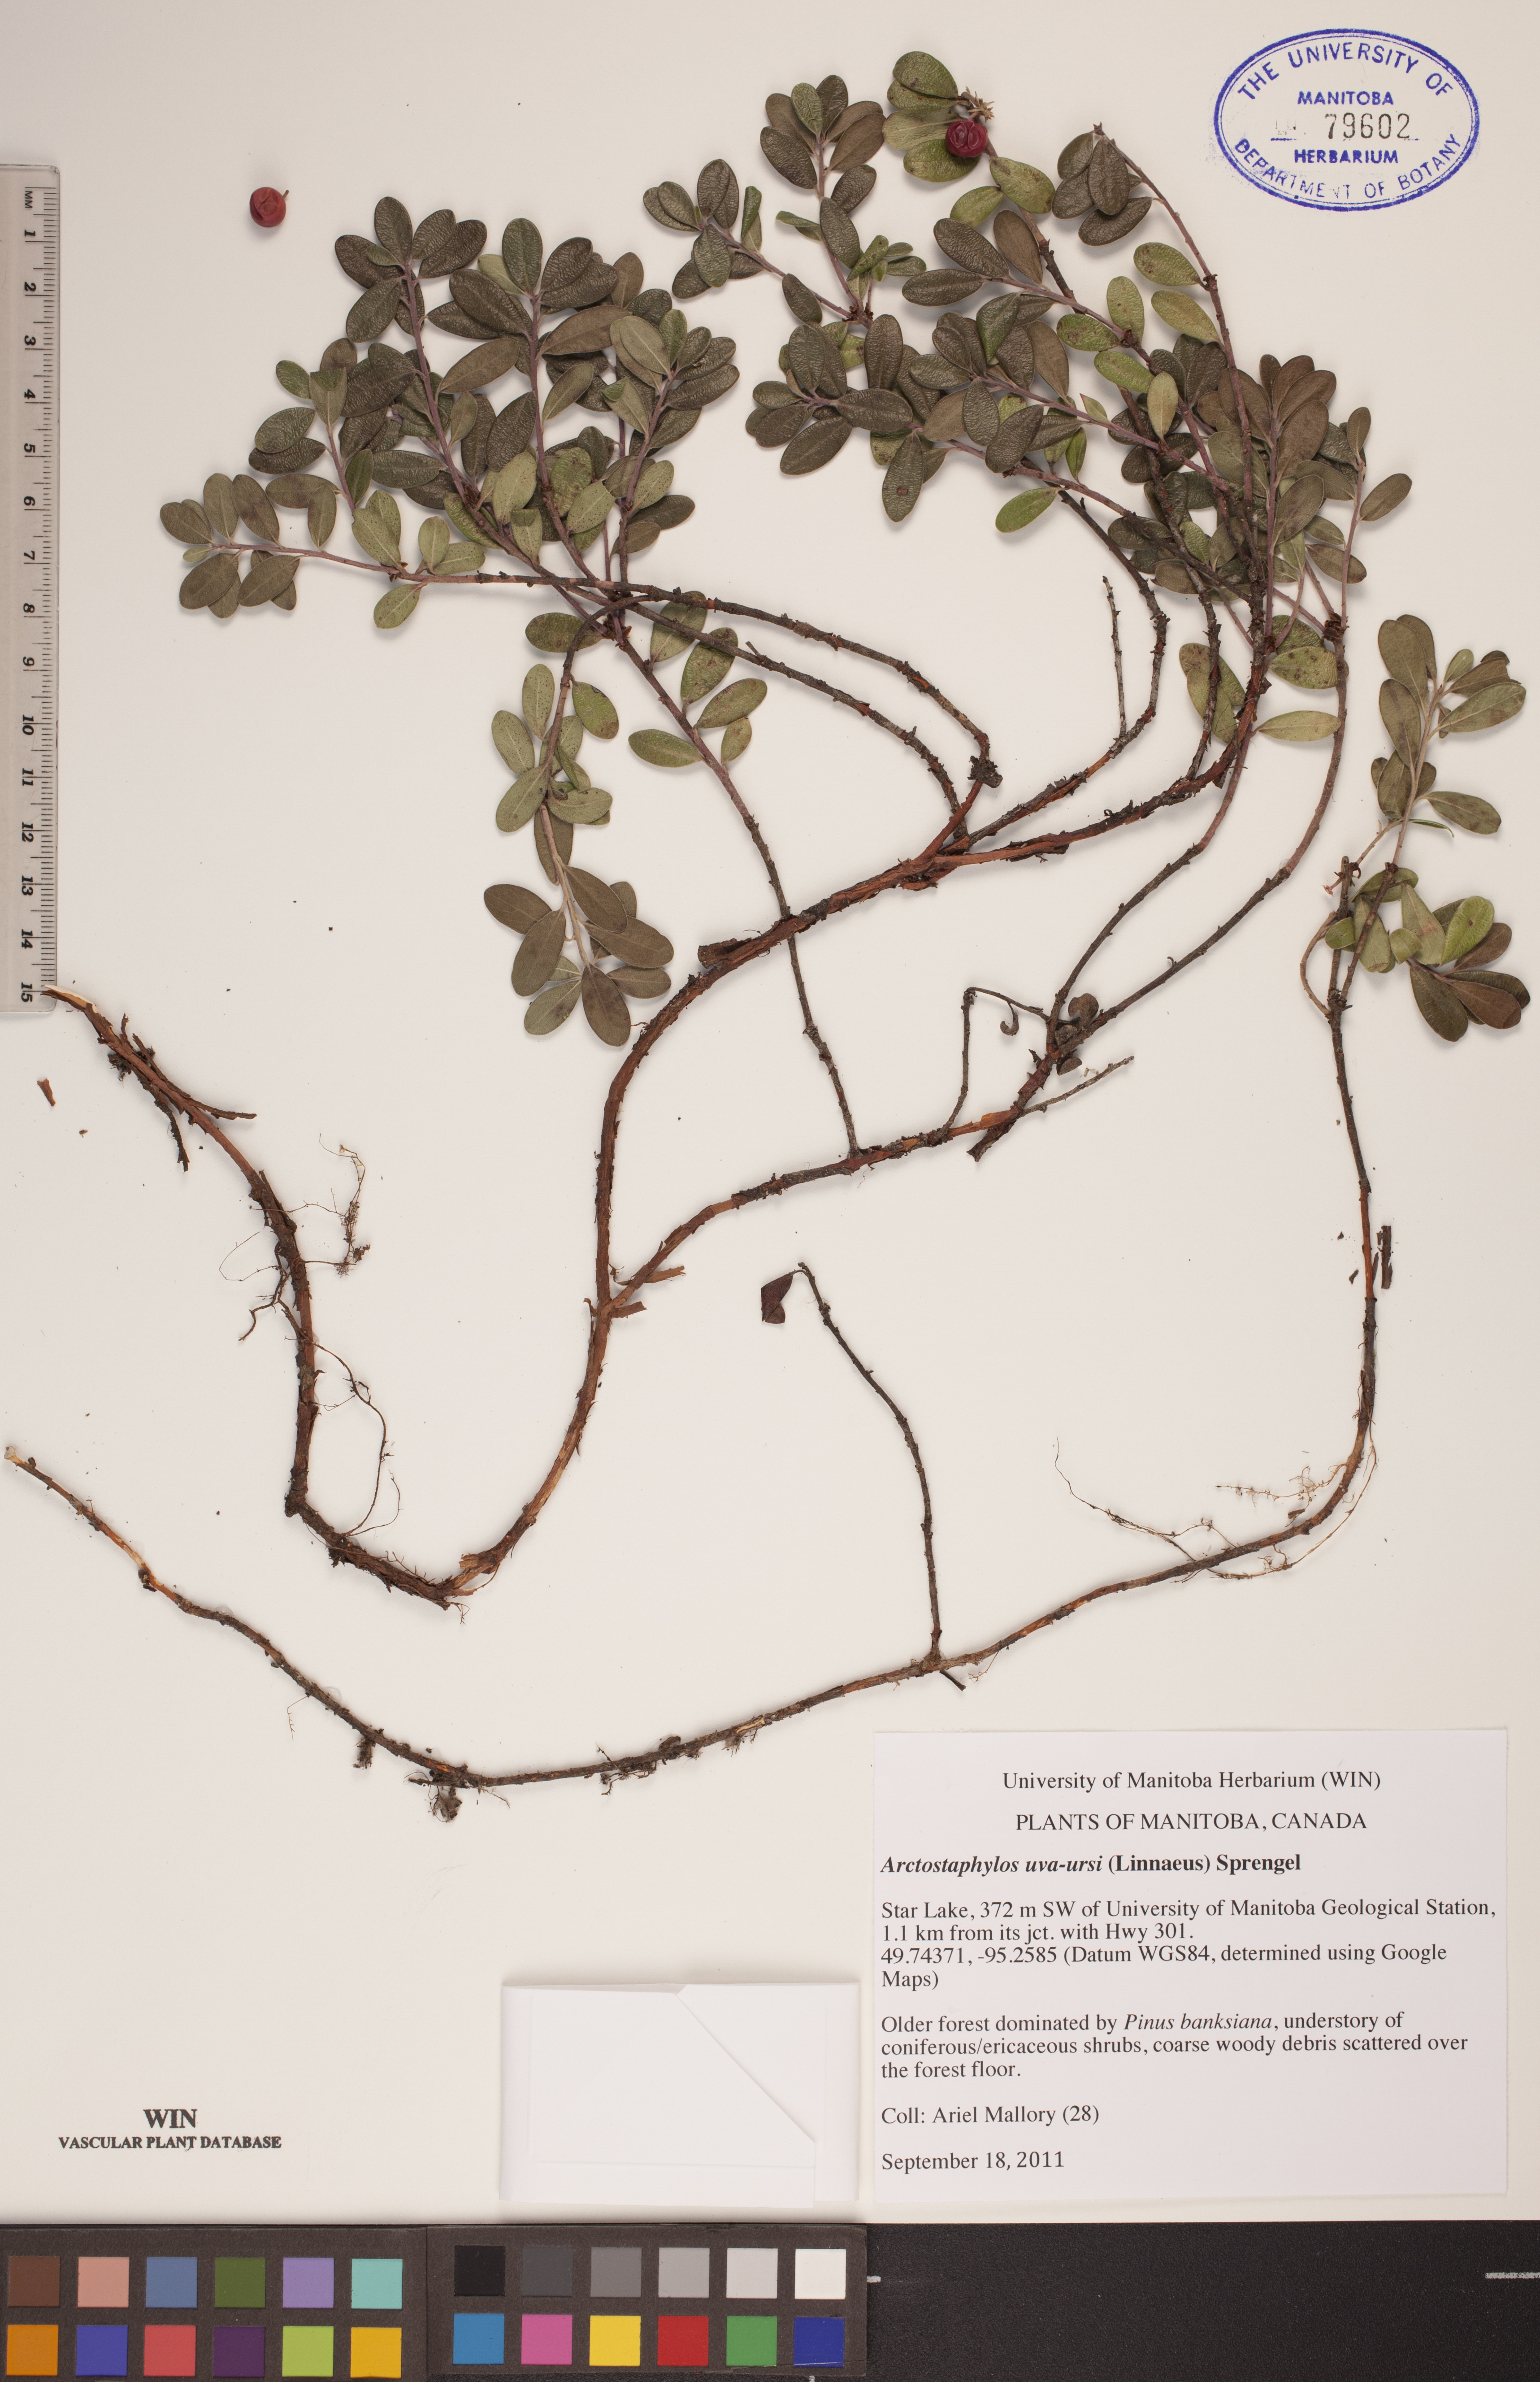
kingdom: Plantae
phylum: Tracheophyta
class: Magnoliopsida
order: Ericales
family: Ericaceae
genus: Arctostaphylos
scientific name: Arctostaphylos uva-ursi
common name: Bearberry
